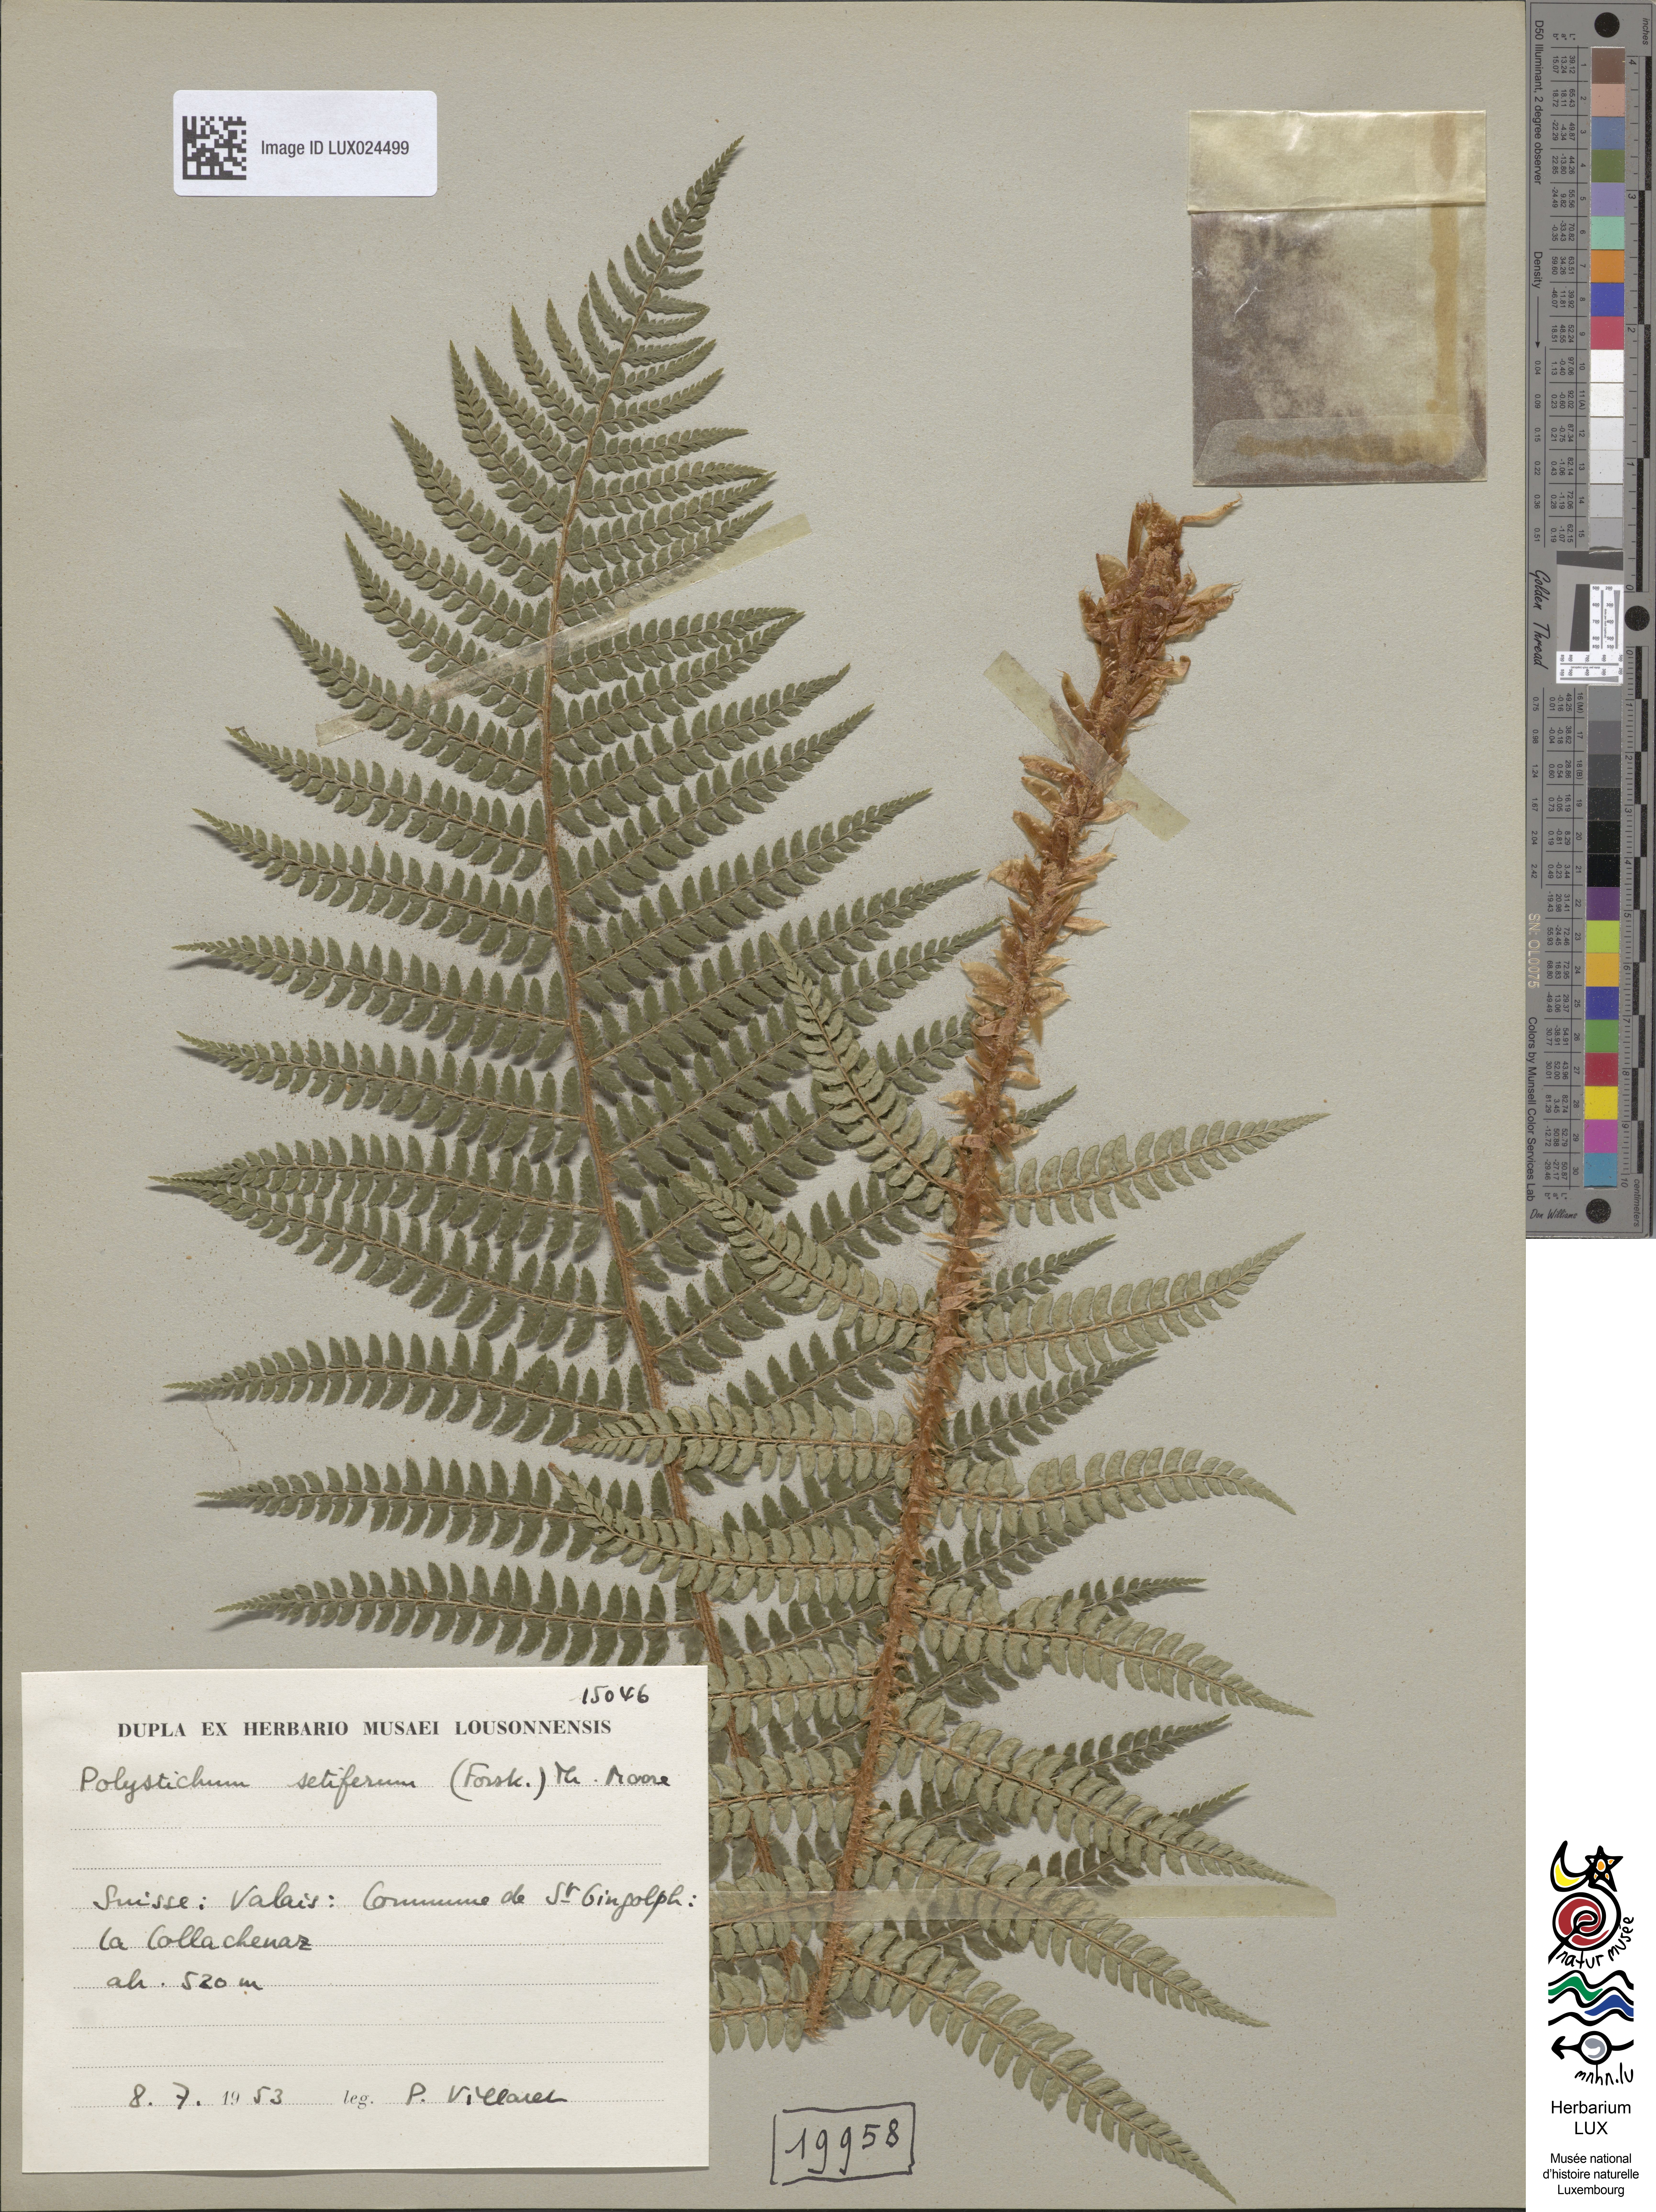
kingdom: Plantae
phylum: Tracheophyta
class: Polypodiopsida
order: Polypodiales
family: Dryopteridaceae
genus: Polystichum
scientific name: Polystichum setiferum
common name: Soft shield-fern
